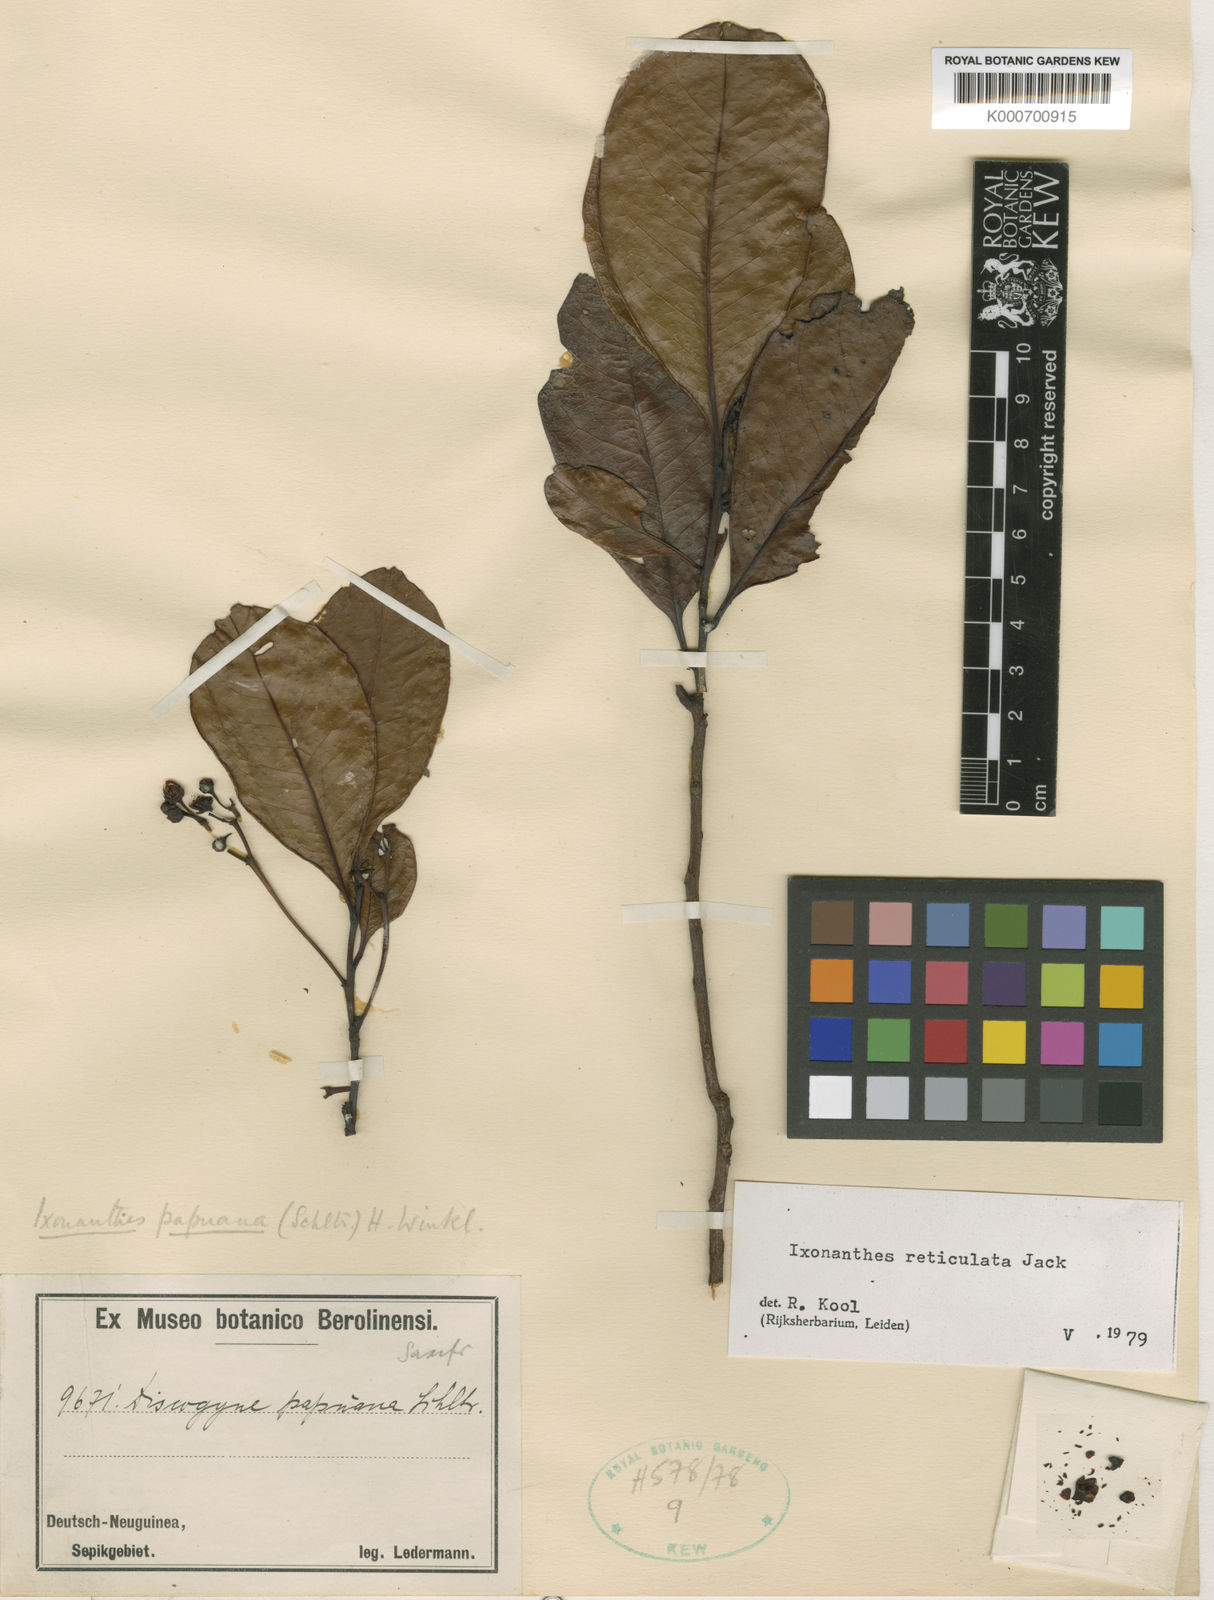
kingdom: Plantae
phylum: Tracheophyta
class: Magnoliopsida
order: Malpighiales
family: Ixonanthaceae
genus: Ixonanthes
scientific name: Ixonanthes reticulata
